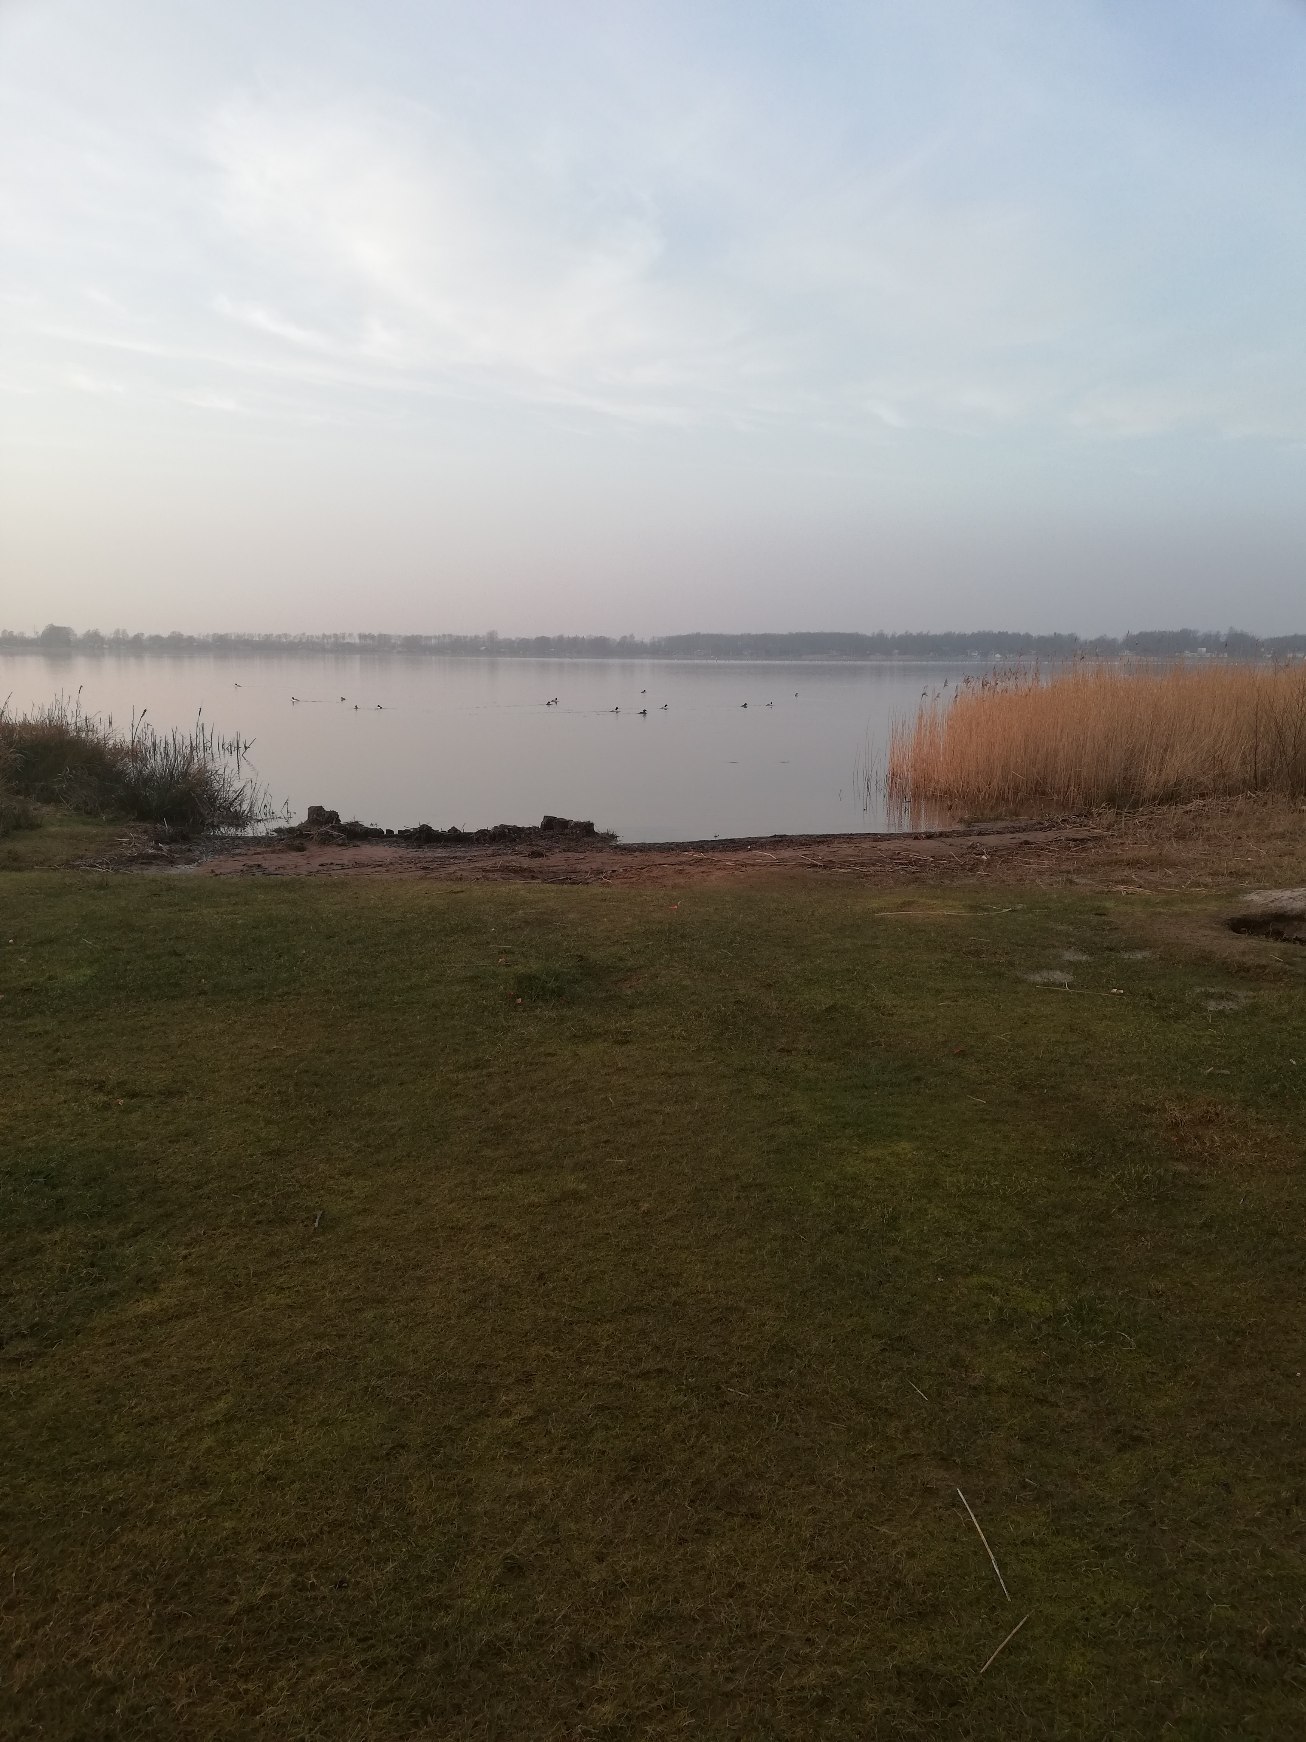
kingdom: Animalia
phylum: Chordata
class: Aves
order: Anseriformes
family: Anatidae
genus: Mergus
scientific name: Mergus merganser
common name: Stor skallesluger
